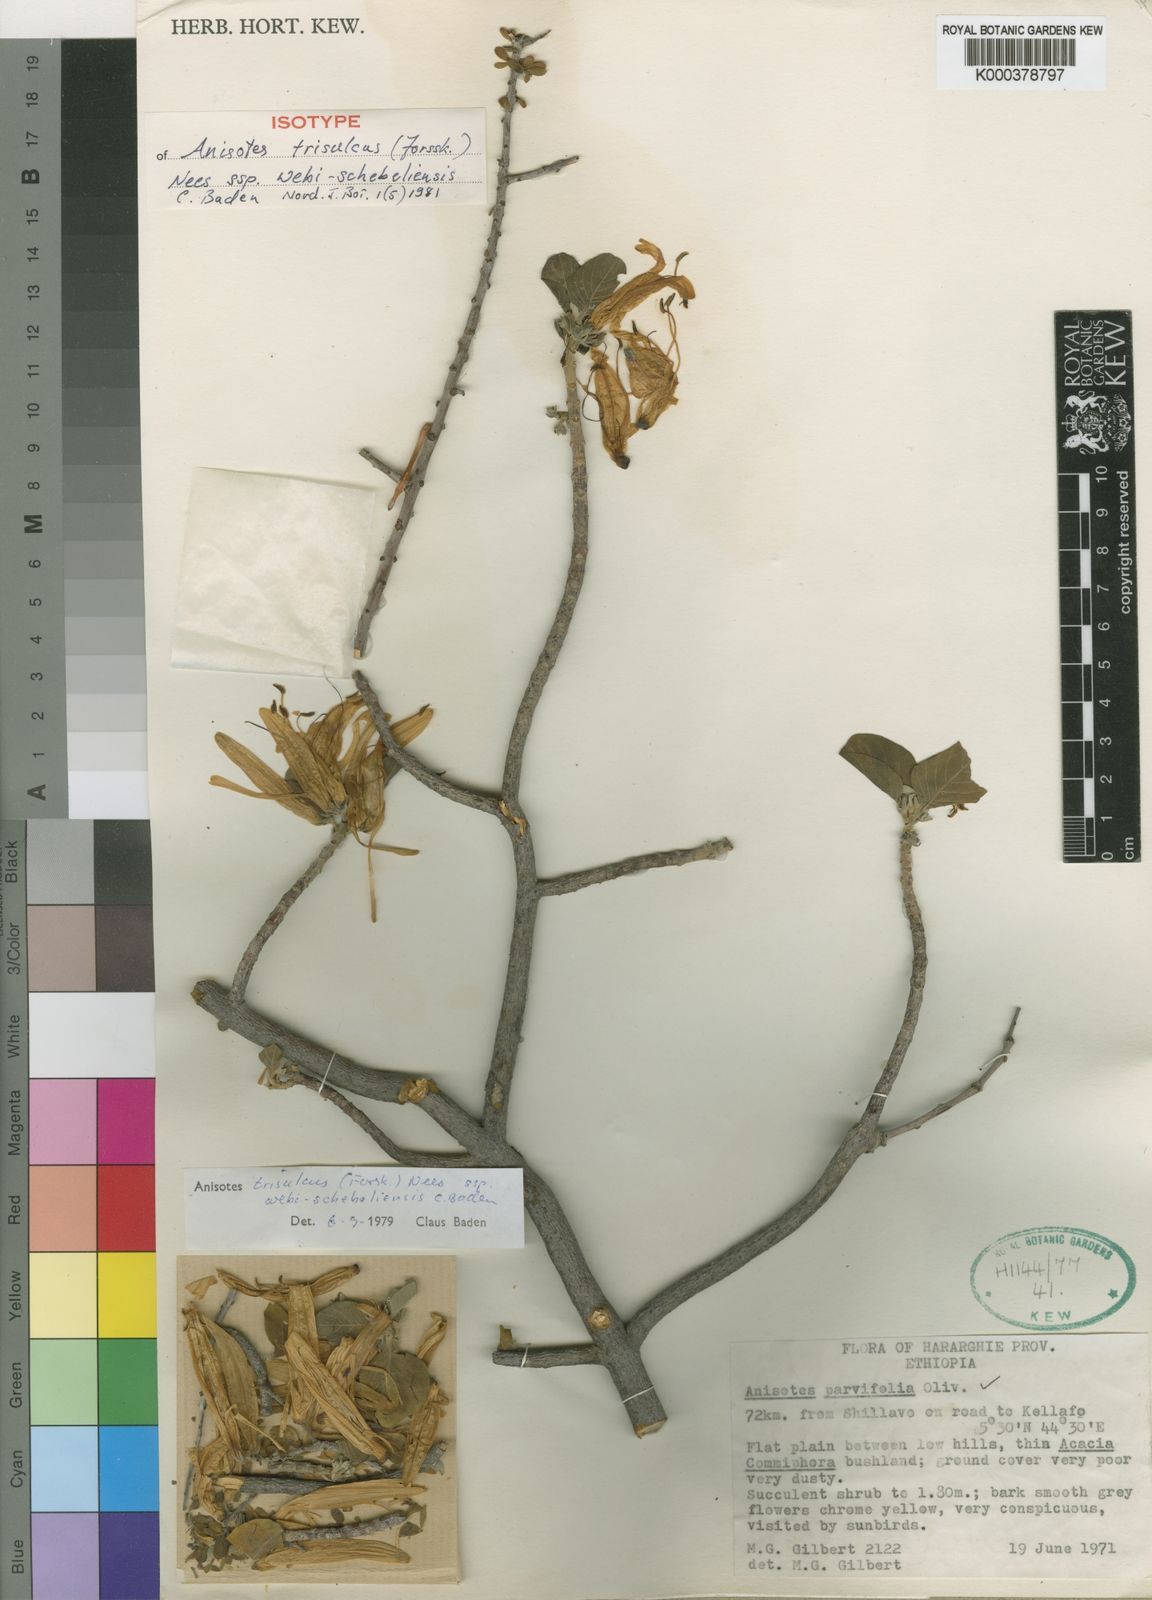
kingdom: Plantae
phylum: Tracheophyta
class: Magnoliopsida
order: Lamiales
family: Acanthaceae
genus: Anisotes
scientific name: Anisotes trisulcus
